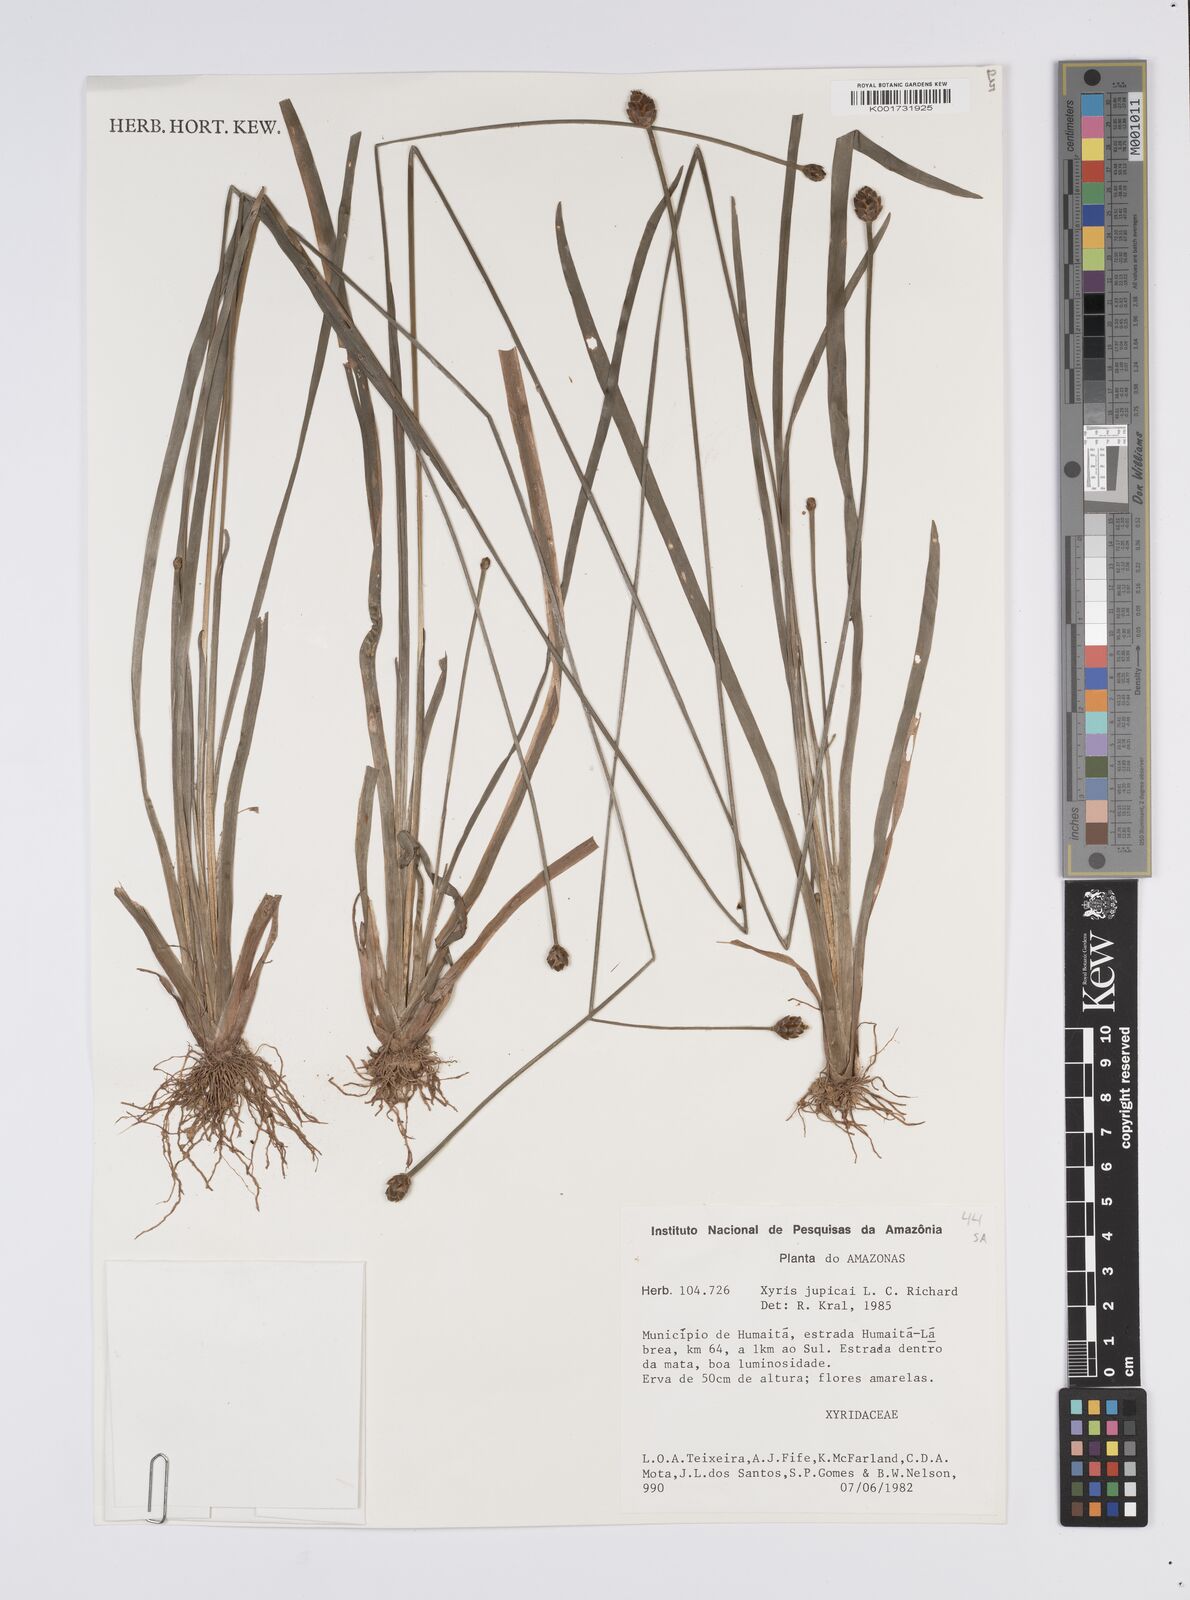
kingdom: Plantae
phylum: Tracheophyta
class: Liliopsida
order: Poales
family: Xyridaceae
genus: Xyris
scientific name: Xyris jupicai
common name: Richard's yelloweyed grass
